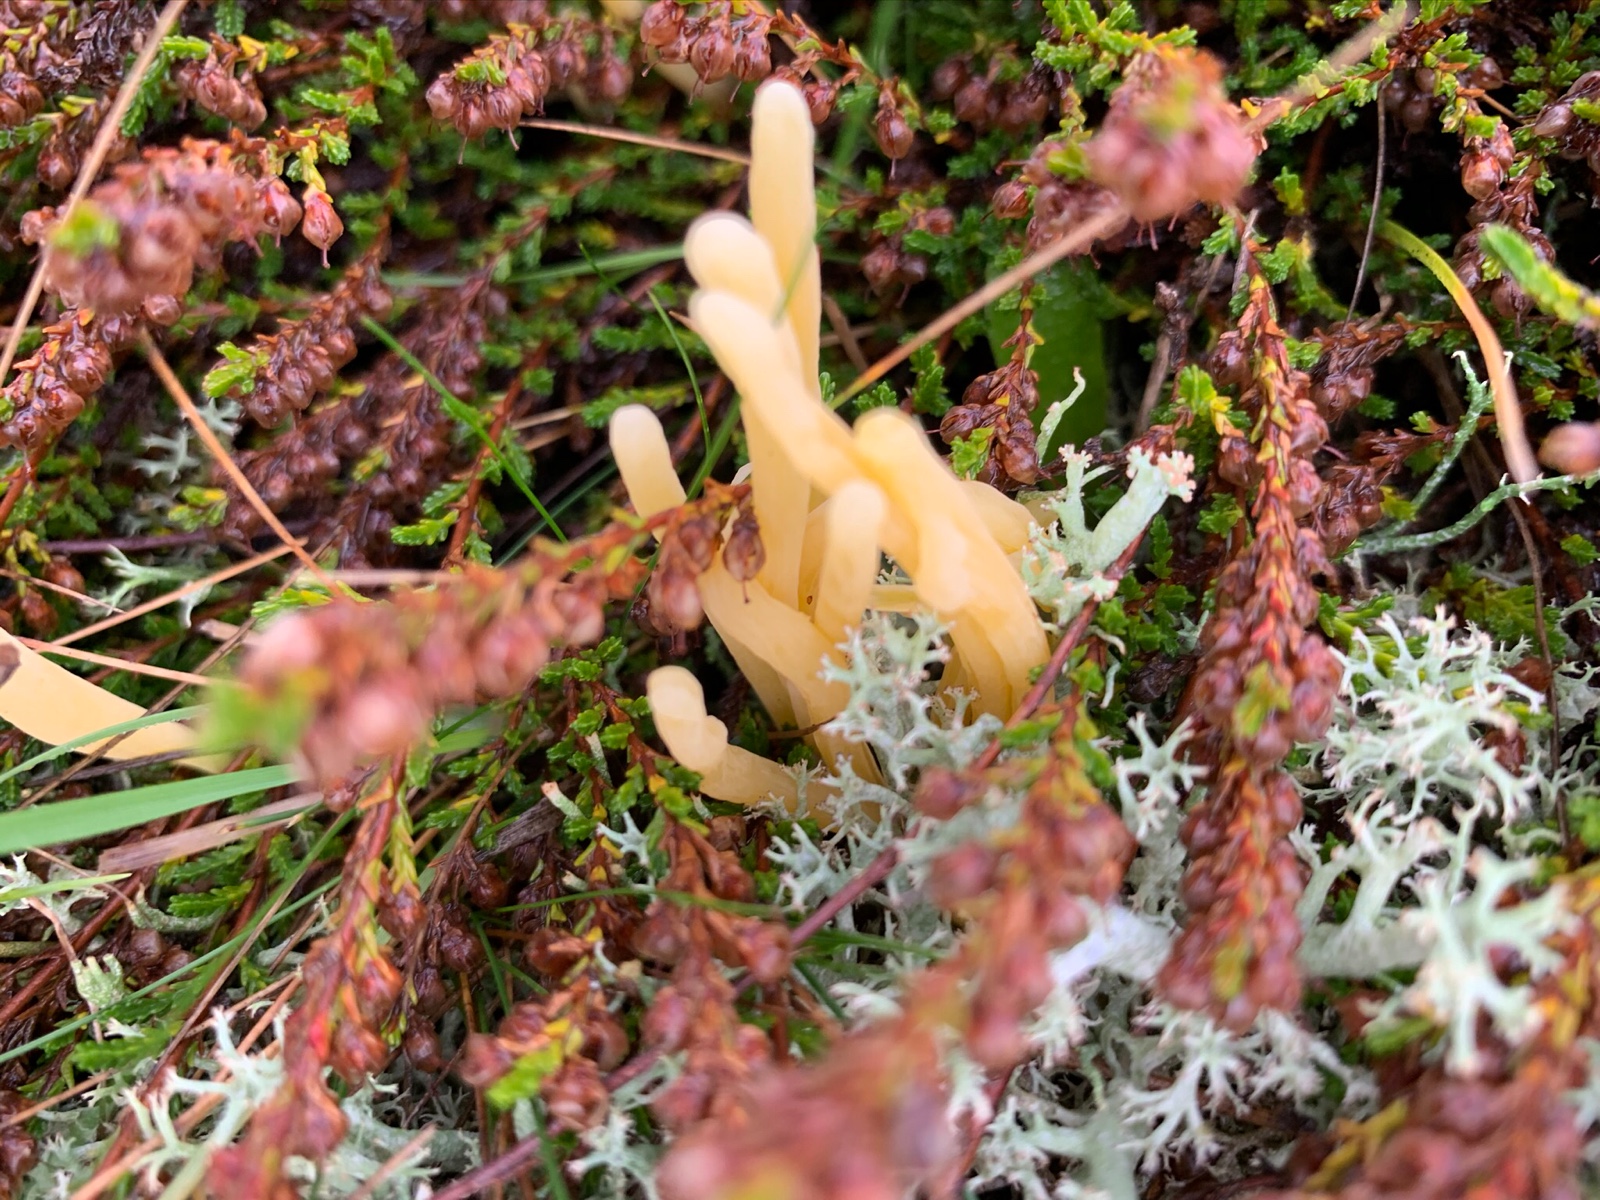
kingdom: Fungi
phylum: Basidiomycota
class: Agaricomycetes
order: Agaricales
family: Clavariaceae
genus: Clavaria
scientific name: Clavaria argillacea
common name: lerfarvet køllesvamp
